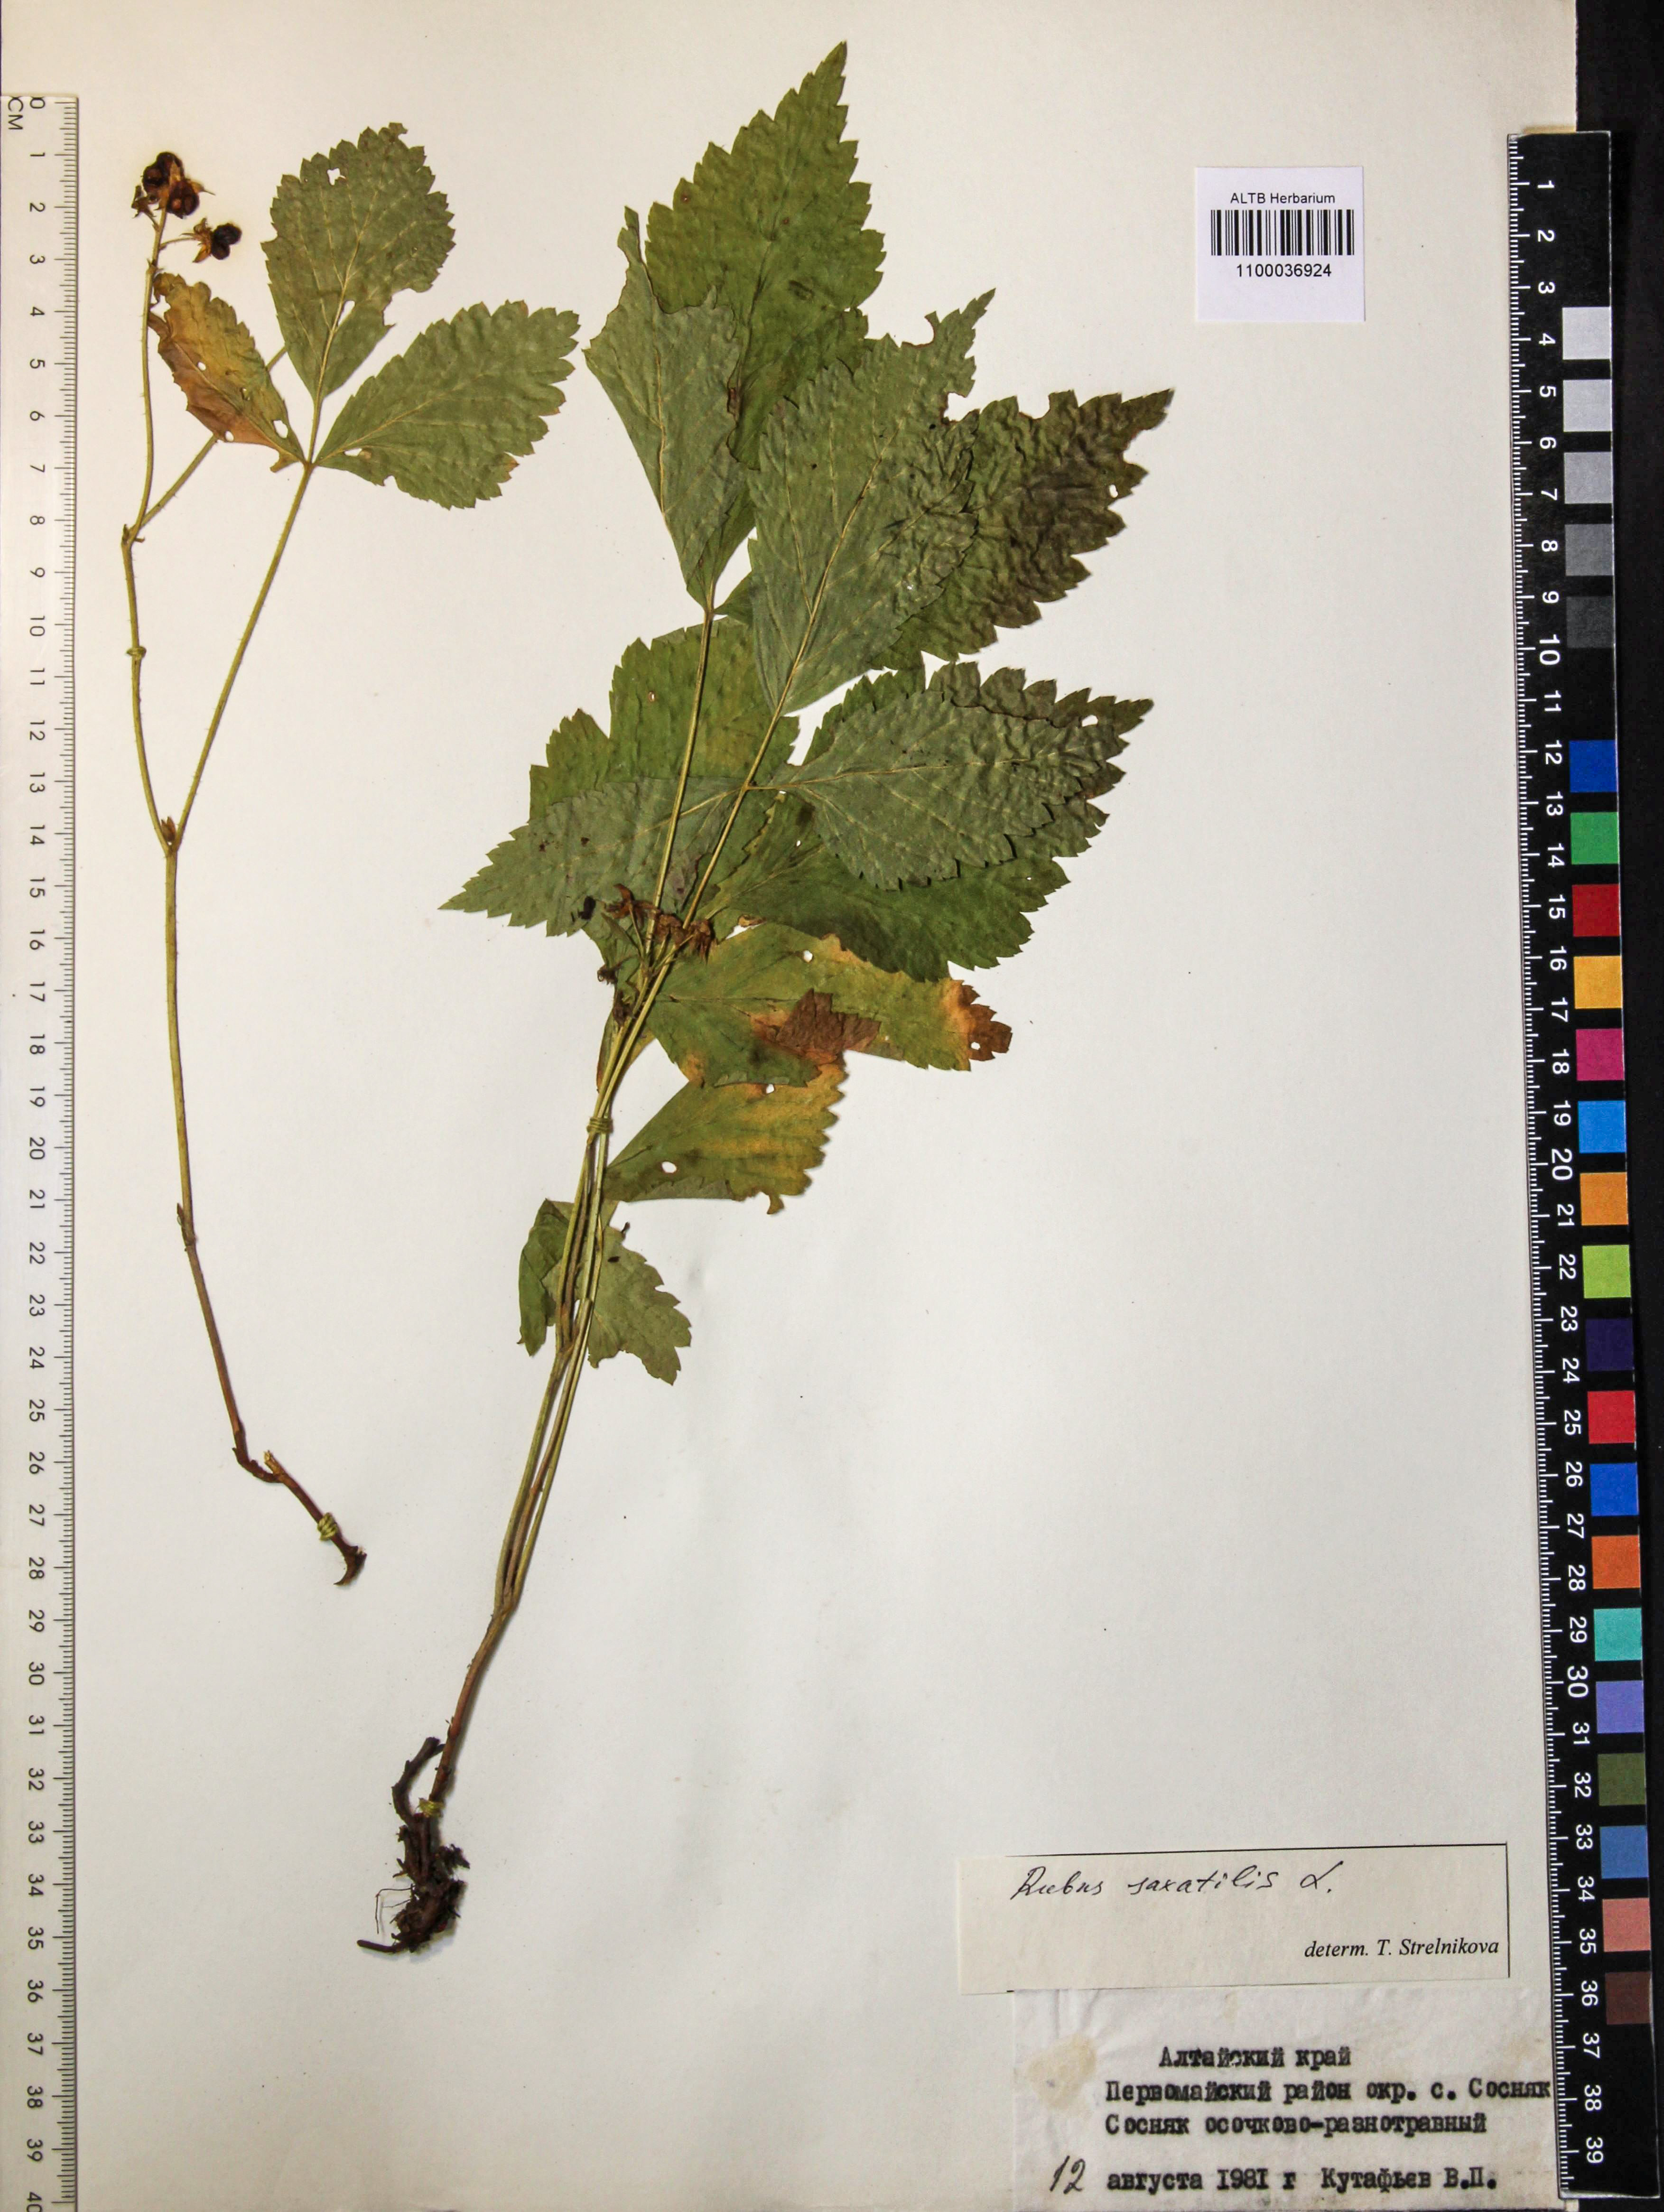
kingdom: Plantae
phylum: Tracheophyta
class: Magnoliopsida
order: Rosales
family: Rosaceae
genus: Rubus
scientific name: Rubus saxatilis
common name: Stone bramble
